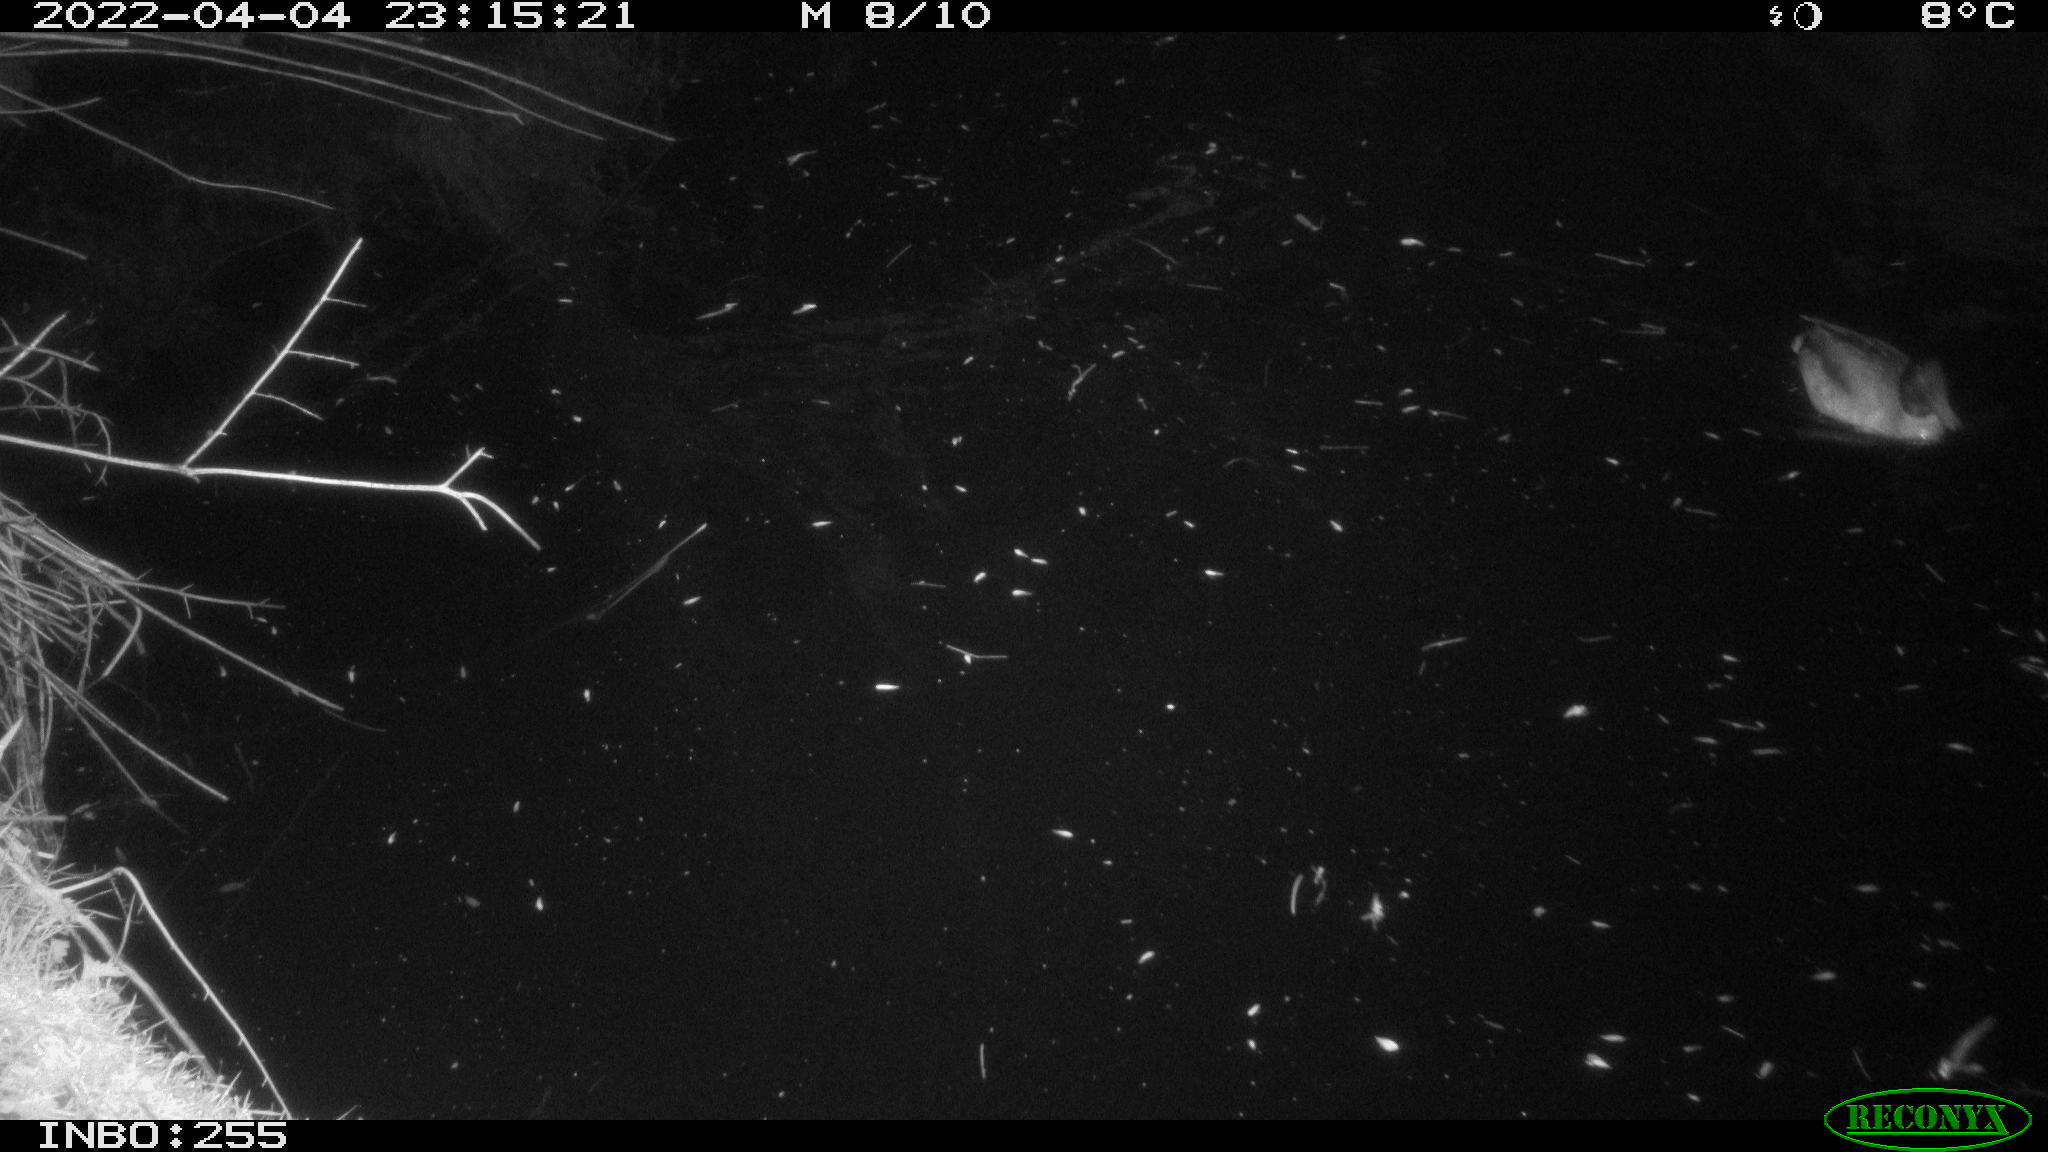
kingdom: Animalia
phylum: Chordata
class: Aves
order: Anseriformes
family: Anatidae
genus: Anas
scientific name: Anas platyrhynchos
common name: Mallard
